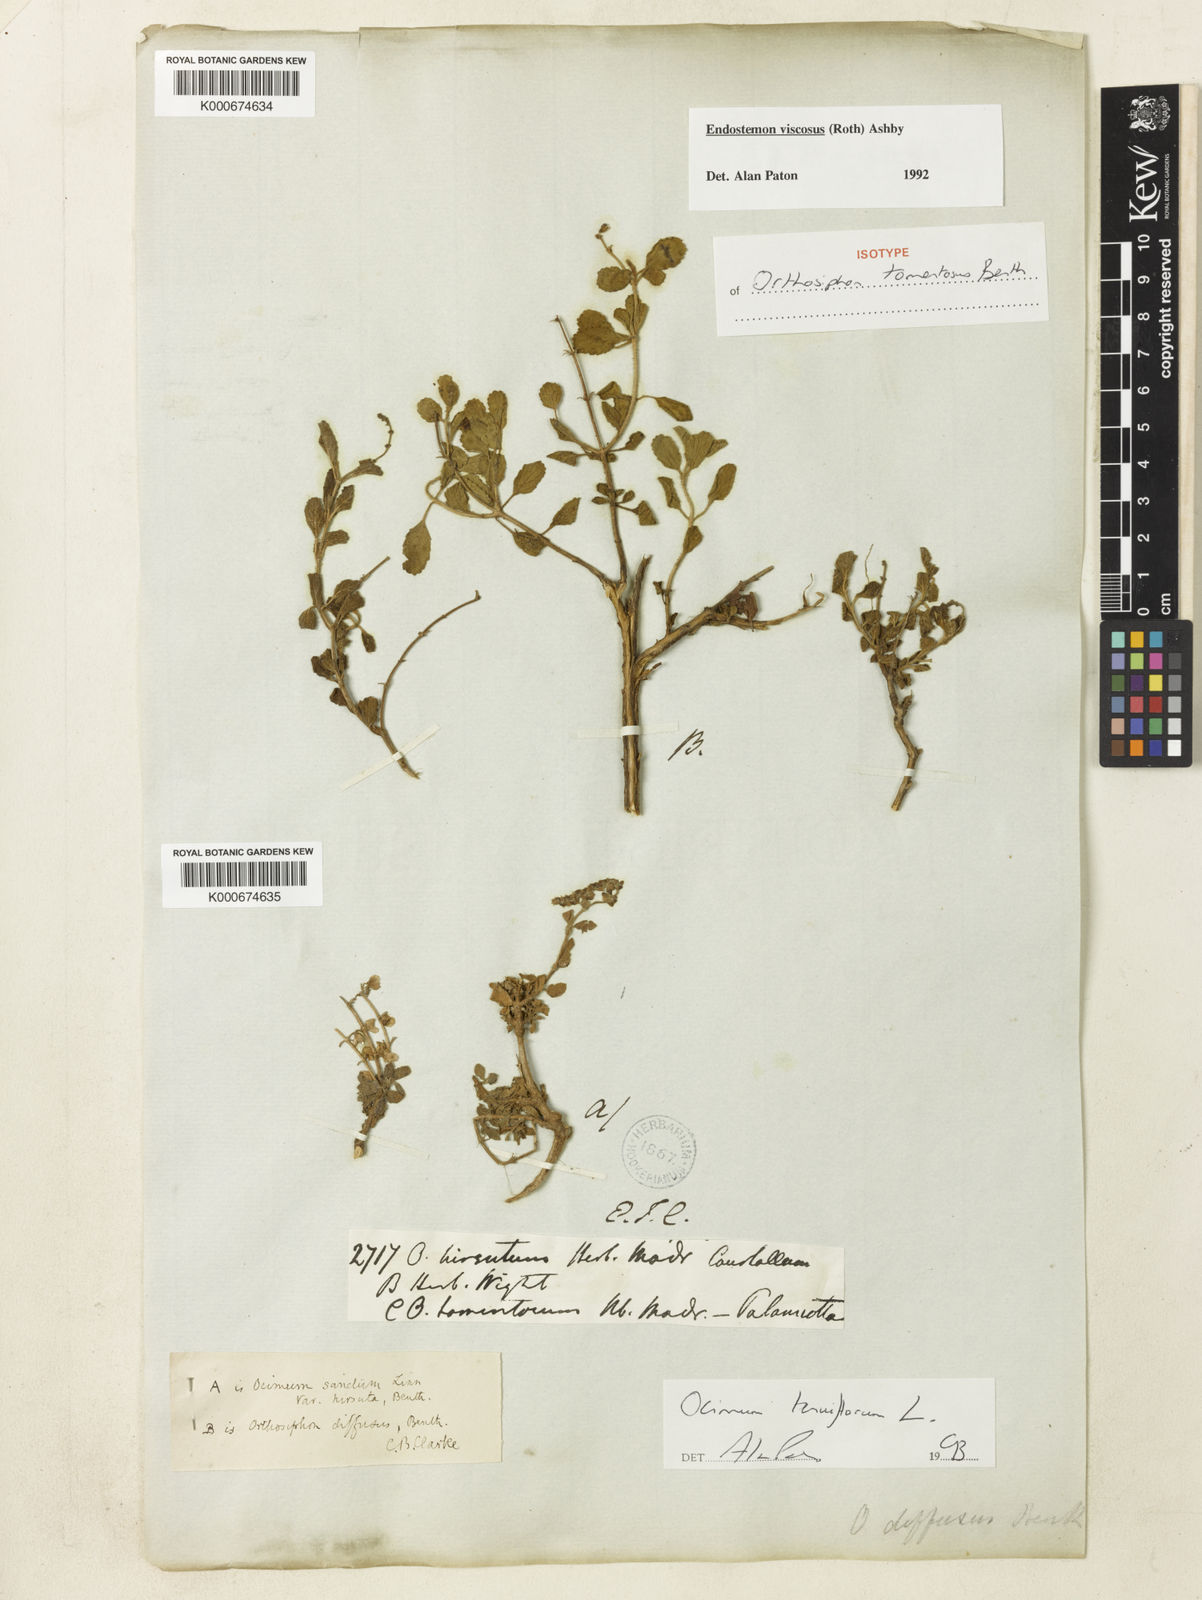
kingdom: Plantae
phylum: Tracheophyta
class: Magnoliopsida
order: Lamiales
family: Lamiaceae
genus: Endostemon
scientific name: Endostemon viscosus
